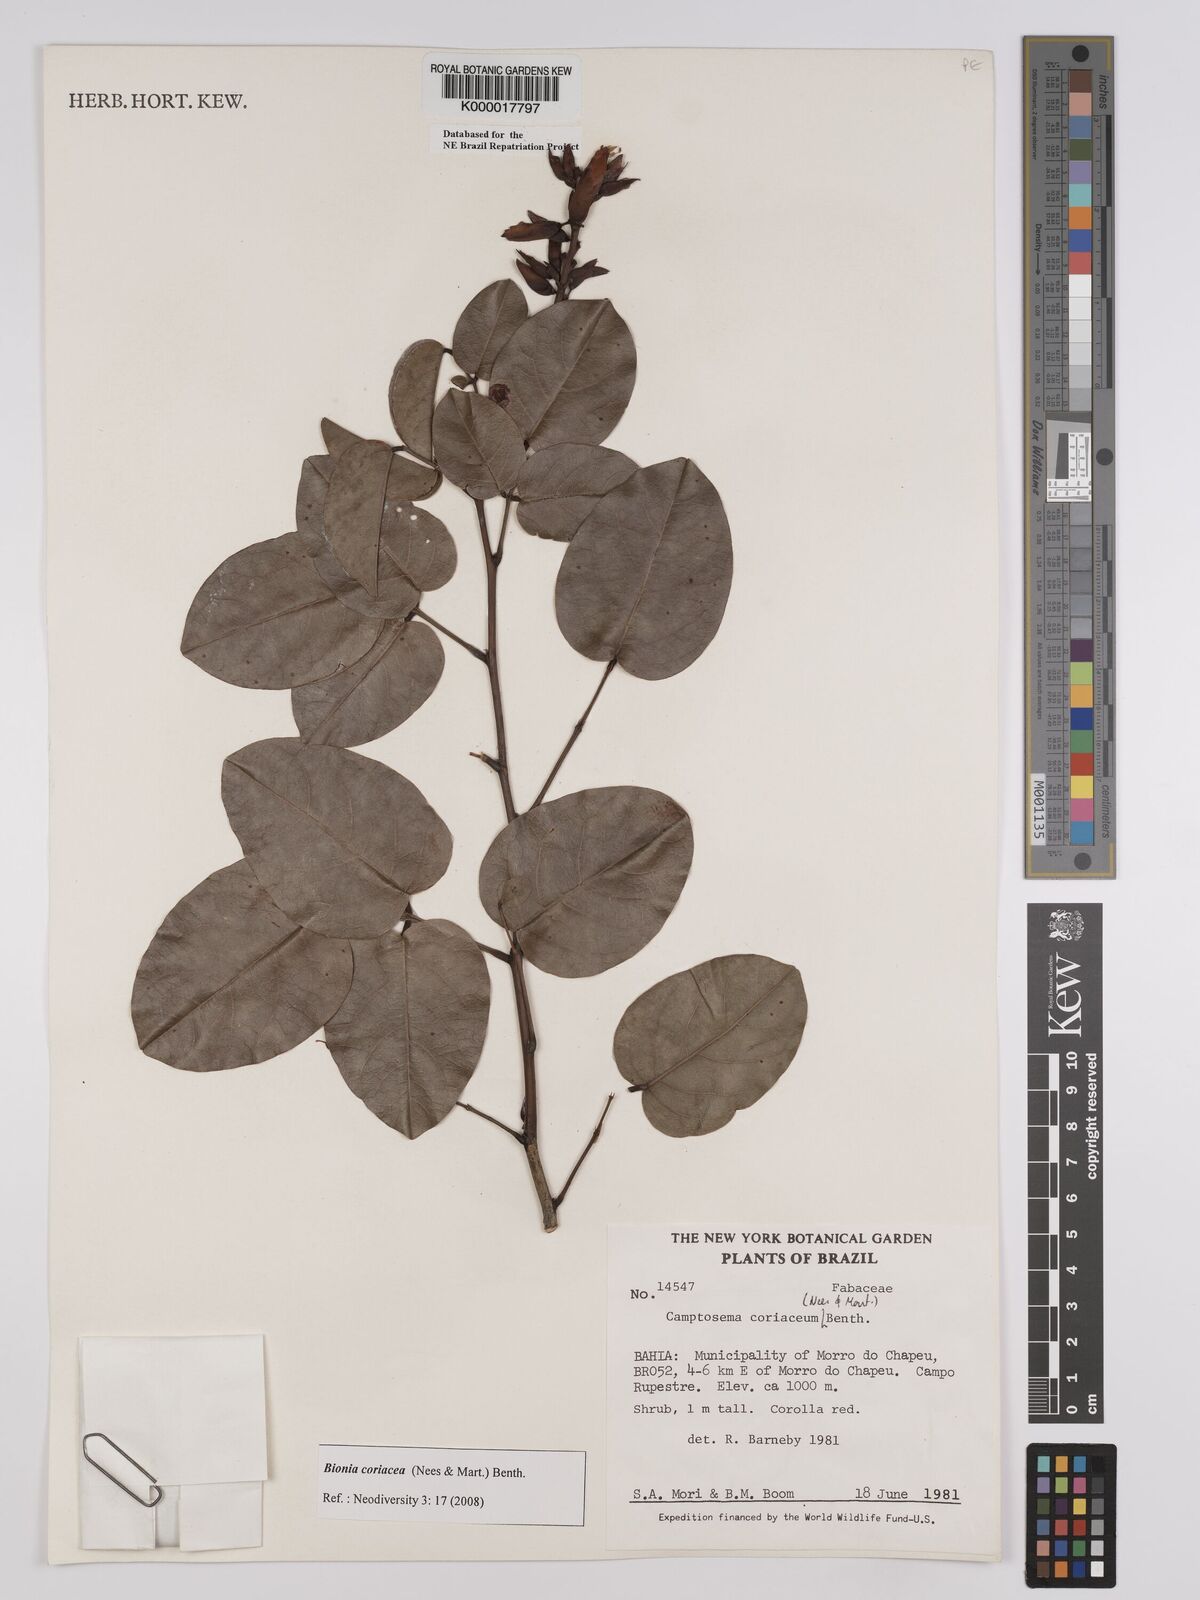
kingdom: Plantae
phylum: Tracheophyta
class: Magnoliopsida
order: Fabales
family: Fabaceae
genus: Camptosema
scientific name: Camptosema coriaceum
